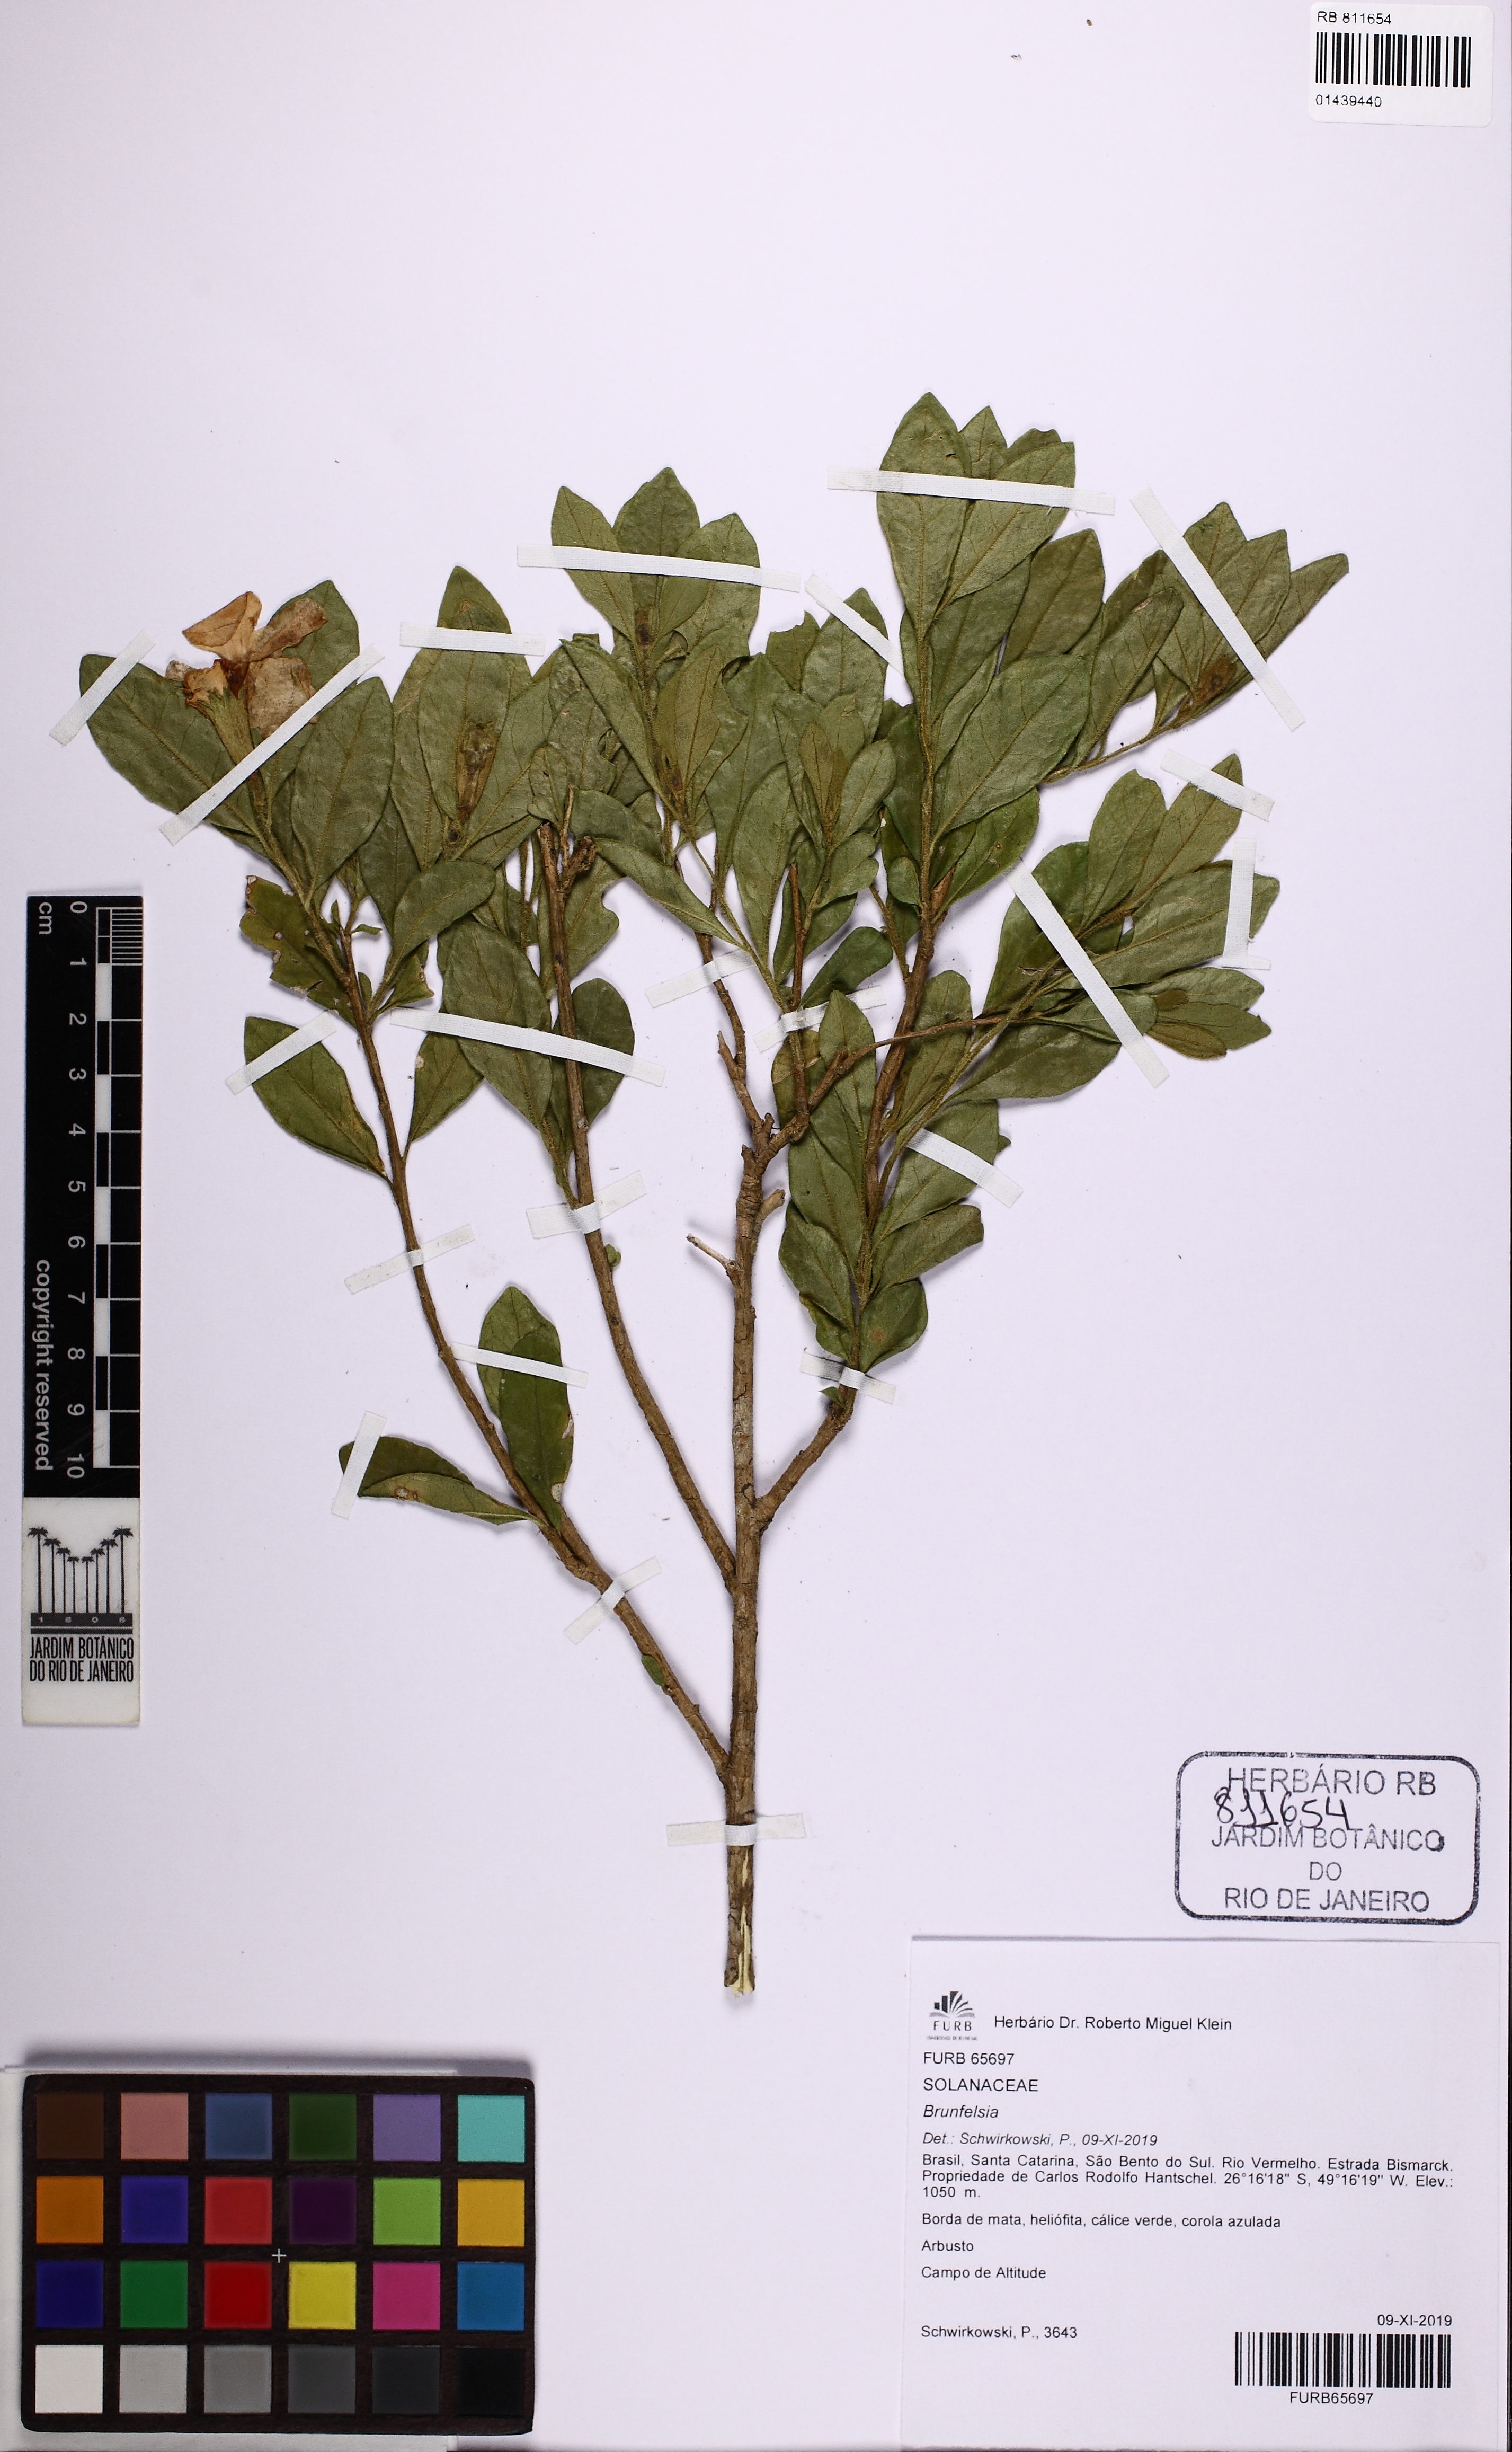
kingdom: Plantae
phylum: Tracheophyta
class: Magnoliopsida
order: Solanales
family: Solanaceae
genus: Brunfelsia
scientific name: Brunfelsia
